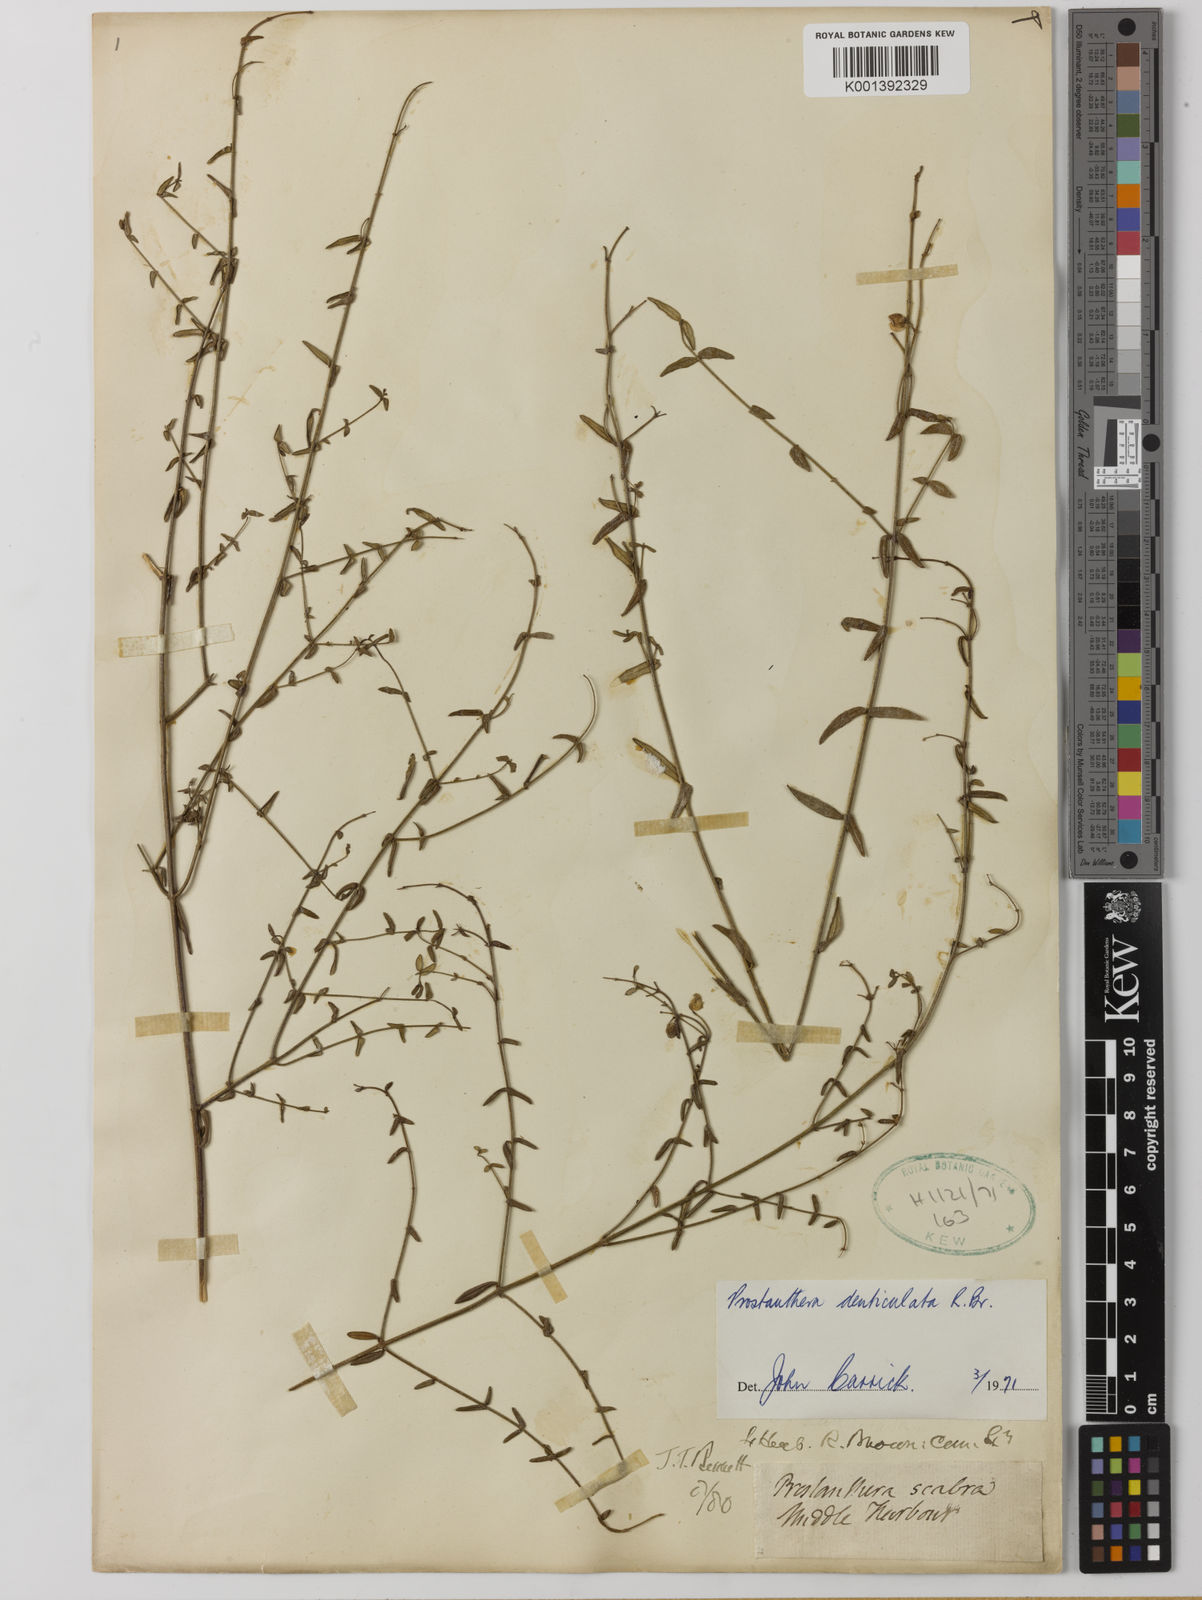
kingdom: Plantae
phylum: Tracheophyta
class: Magnoliopsida
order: Lamiales
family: Lamiaceae
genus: Prostanthera
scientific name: Prostanthera denticulata
